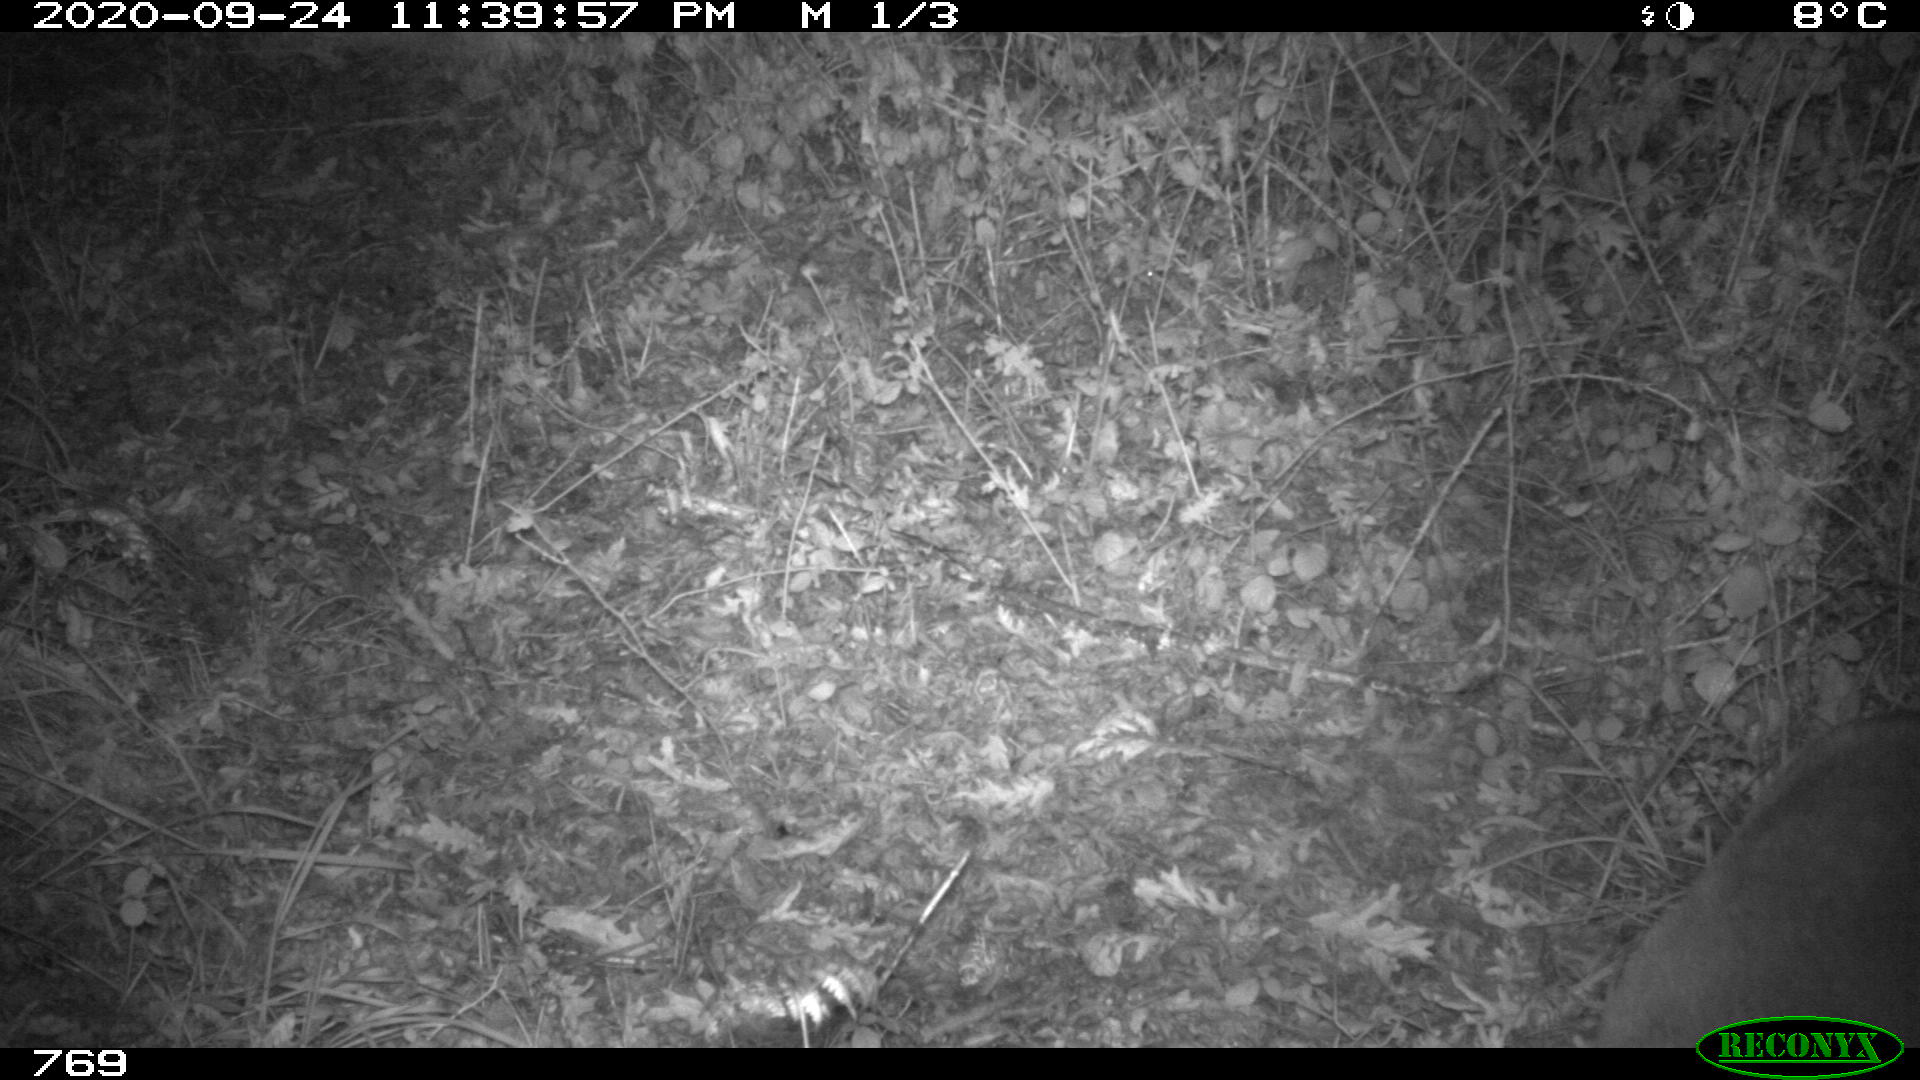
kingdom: Animalia
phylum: Chordata
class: Mammalia
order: Artiodactyla
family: Cervidae
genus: Capreolus
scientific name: Capreolus capreolus
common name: Western roe deer
